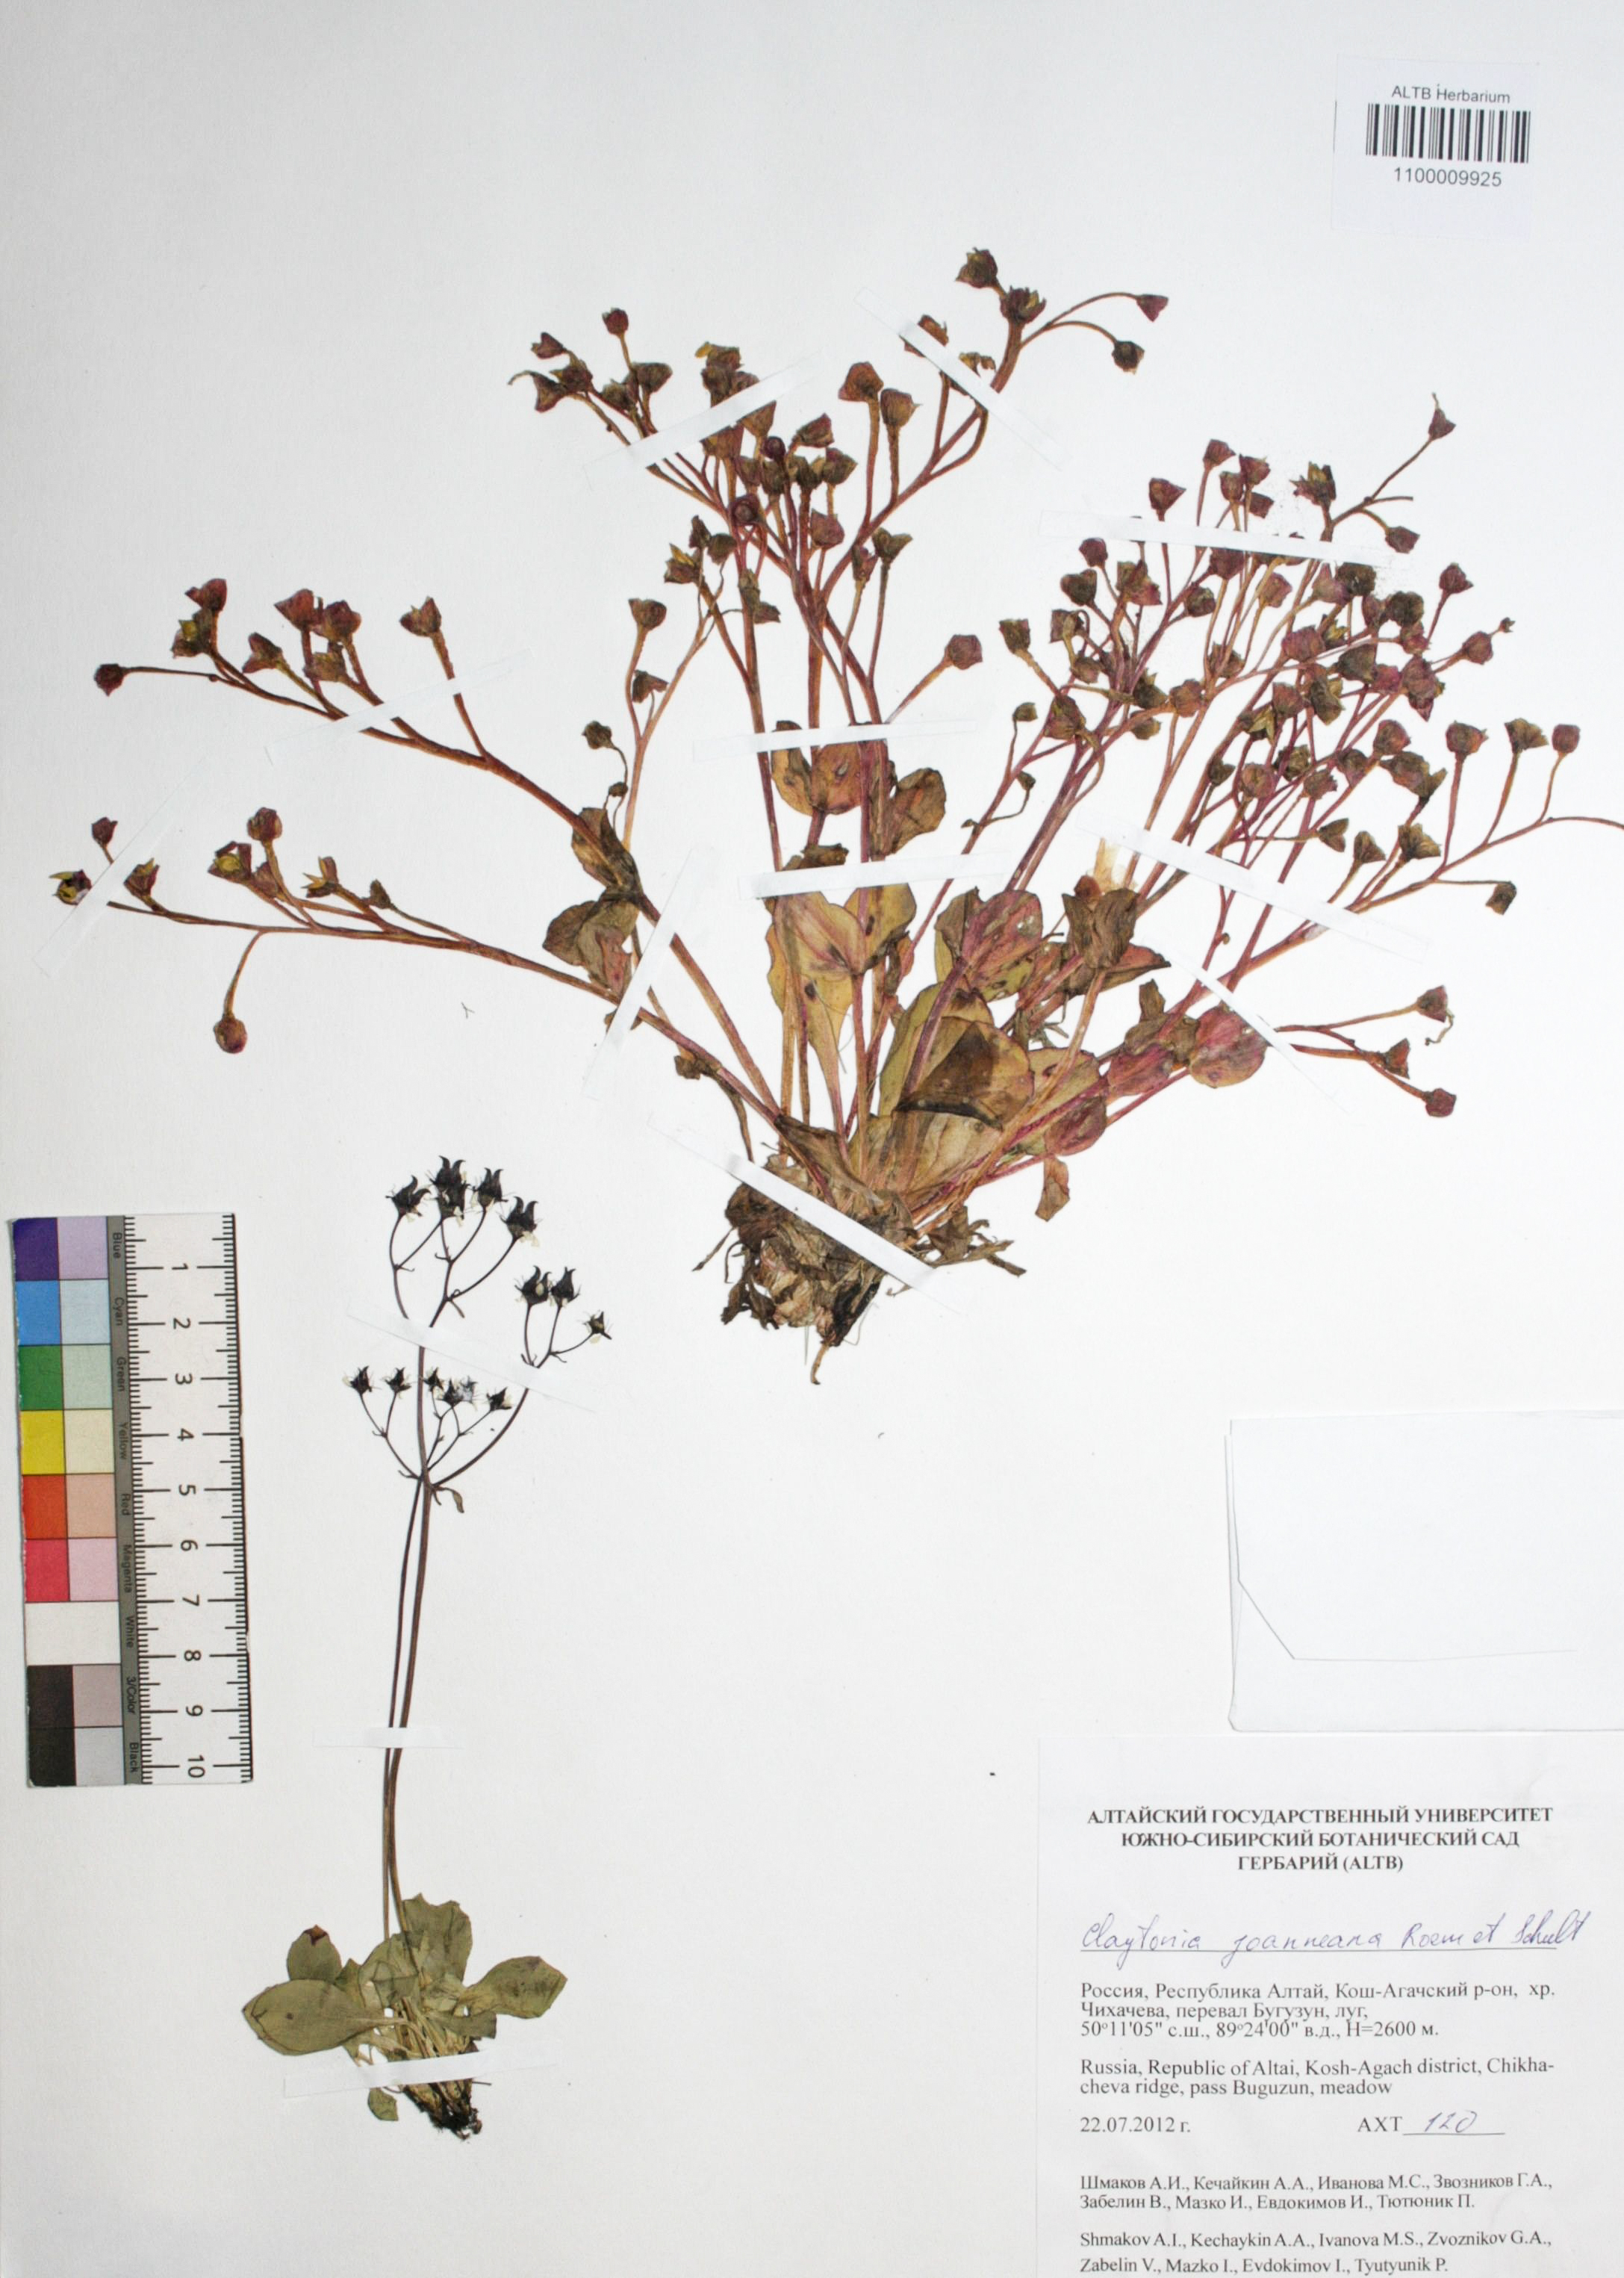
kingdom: Plantae
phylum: Tracheophyta
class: Magnoliopsida
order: Caryophyllales
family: Montiaceae
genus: Claytonia
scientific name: Claytonia joanneana
